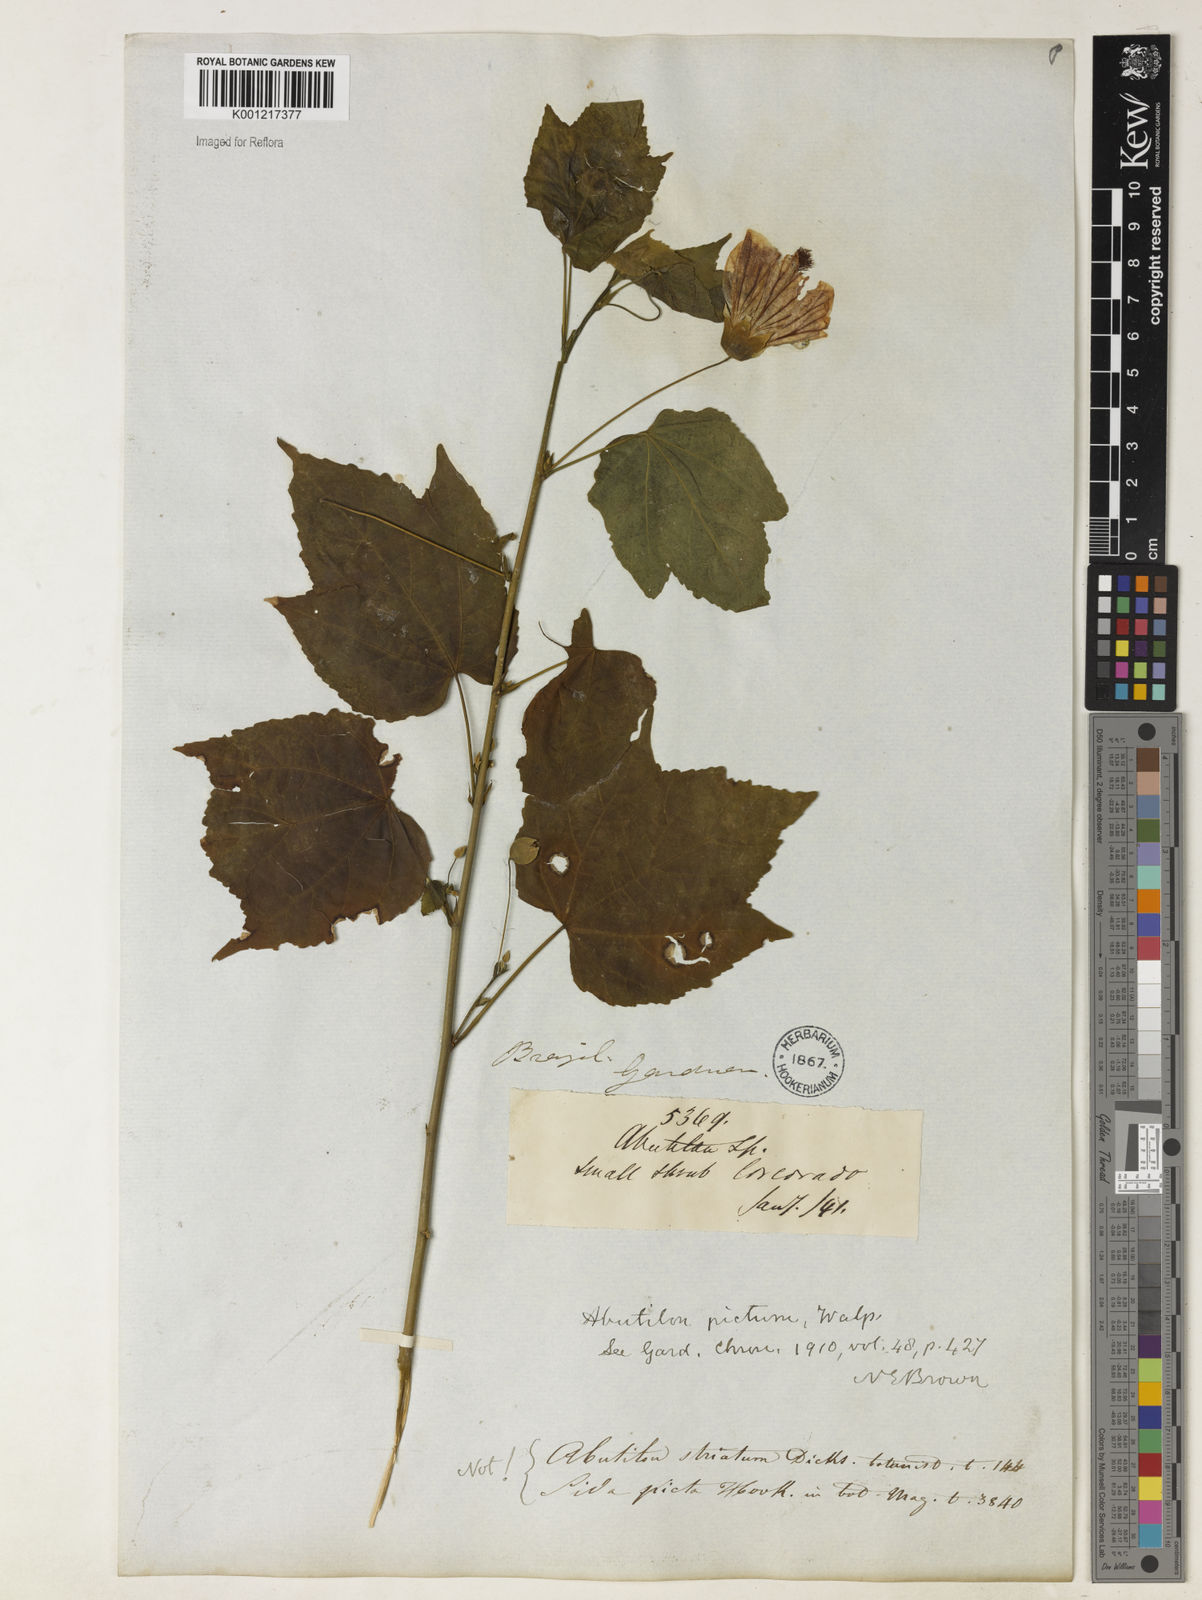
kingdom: Plantae
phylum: Tracheophyta
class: Magnoliopsida
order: Malvales
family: Malvaceae
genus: Callianthe
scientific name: Callianthe picta
